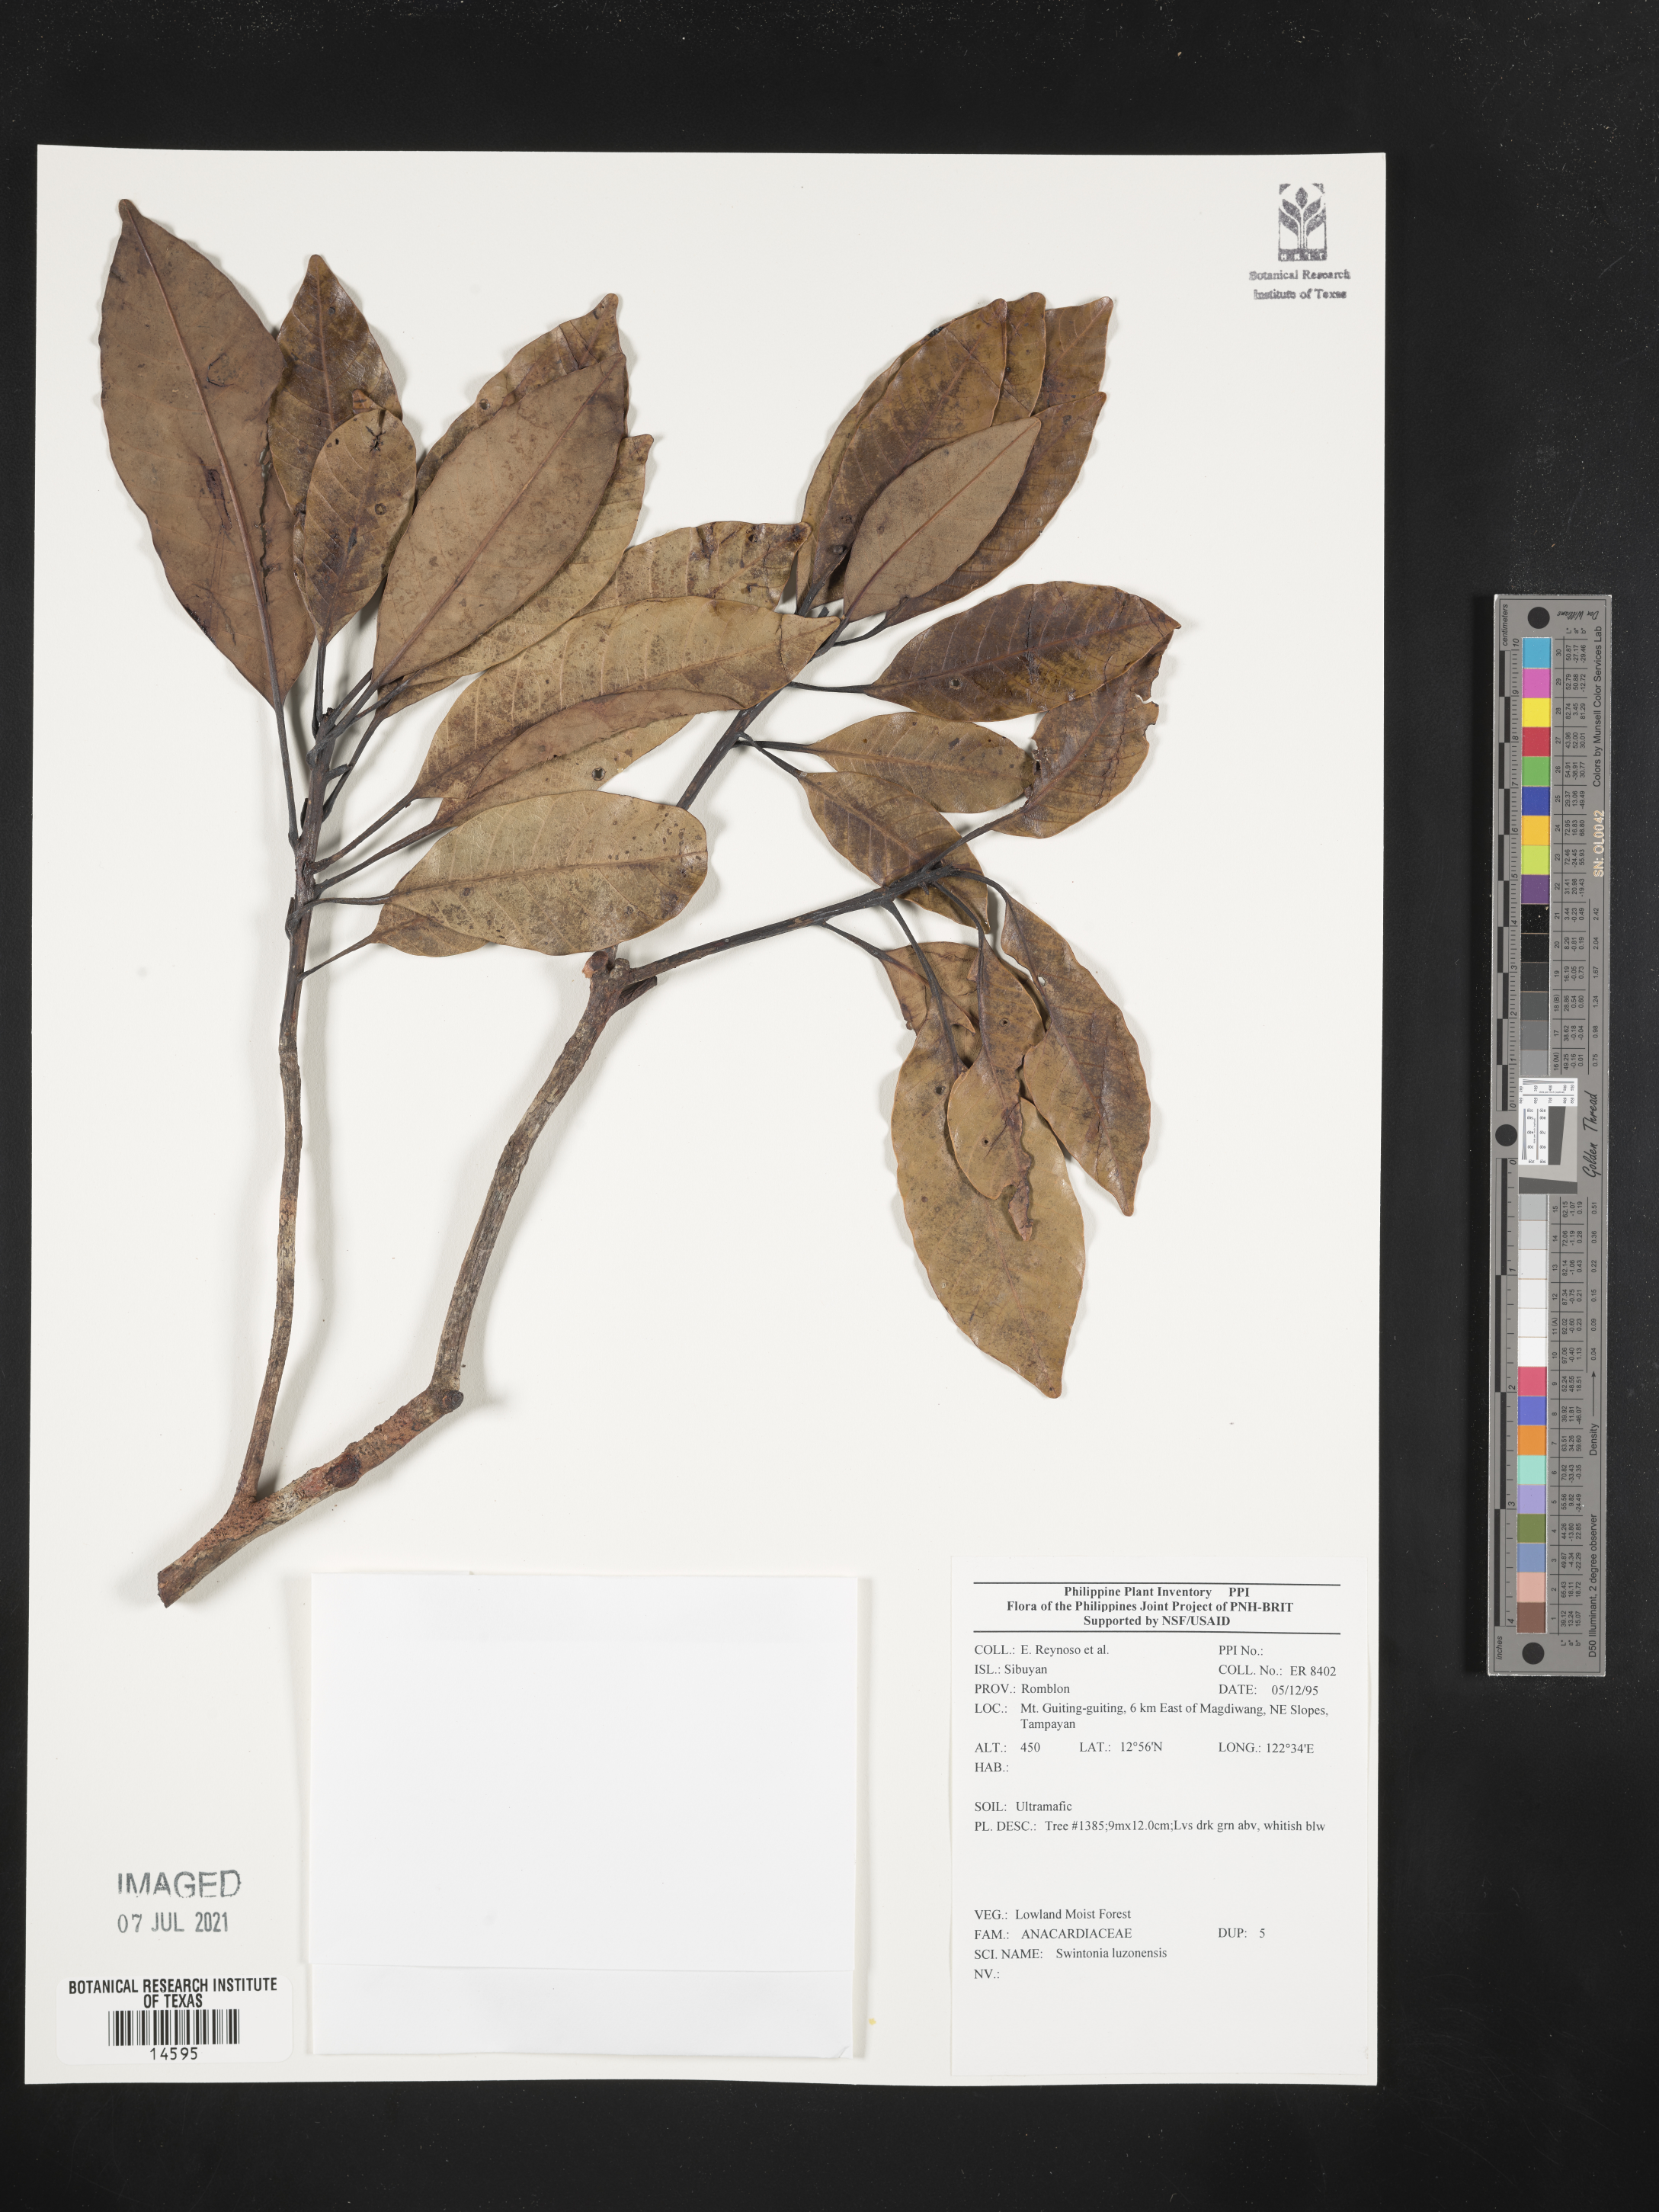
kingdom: Plantae
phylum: Tracheophyta
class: Magnoliopsida
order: Sapindales
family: Anacardiaceae
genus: Swintonia
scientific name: Swintonia acuta
